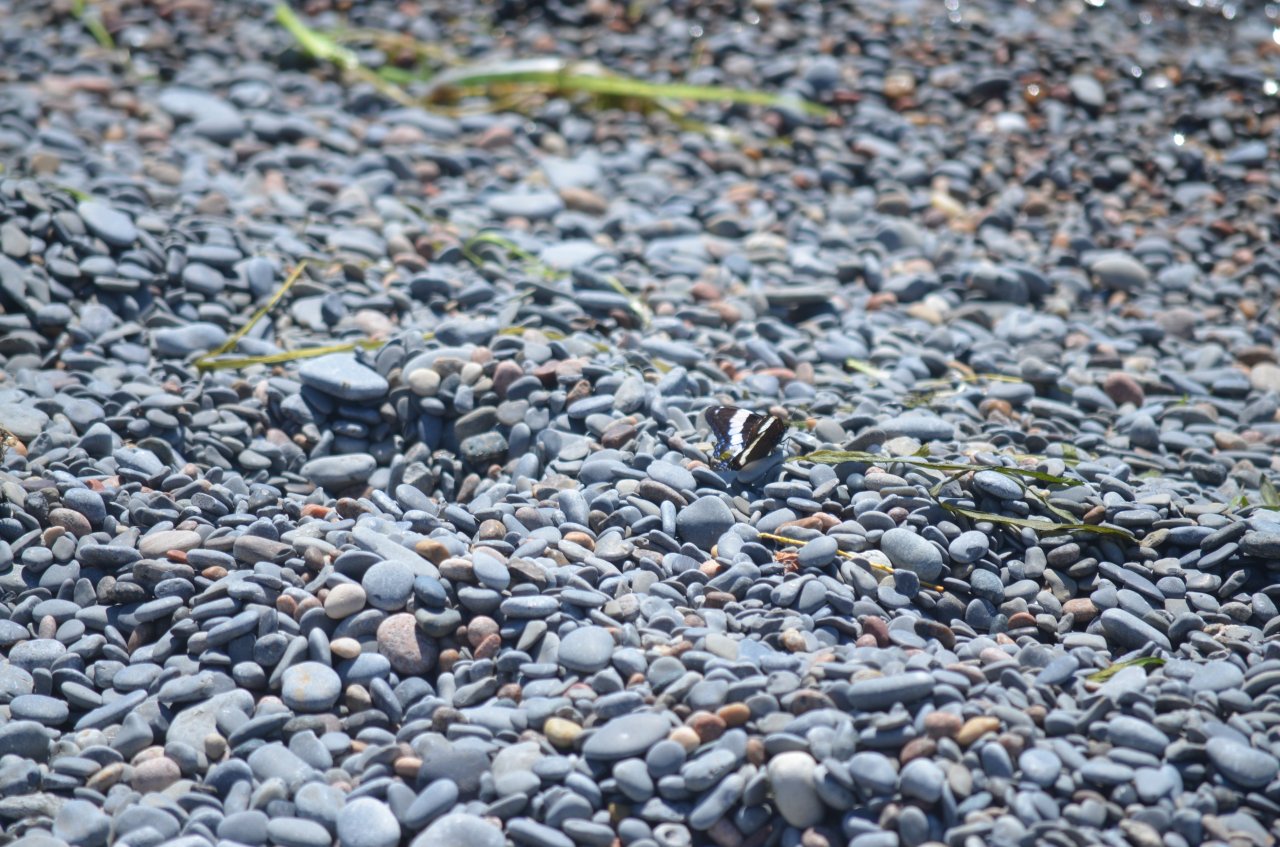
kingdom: Animalia
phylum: Arthropoda
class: Insecta
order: Lepidoptera
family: Nymphalidae
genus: Limenitis
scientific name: Limenitis arthemis
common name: Red-spotted Admiral
